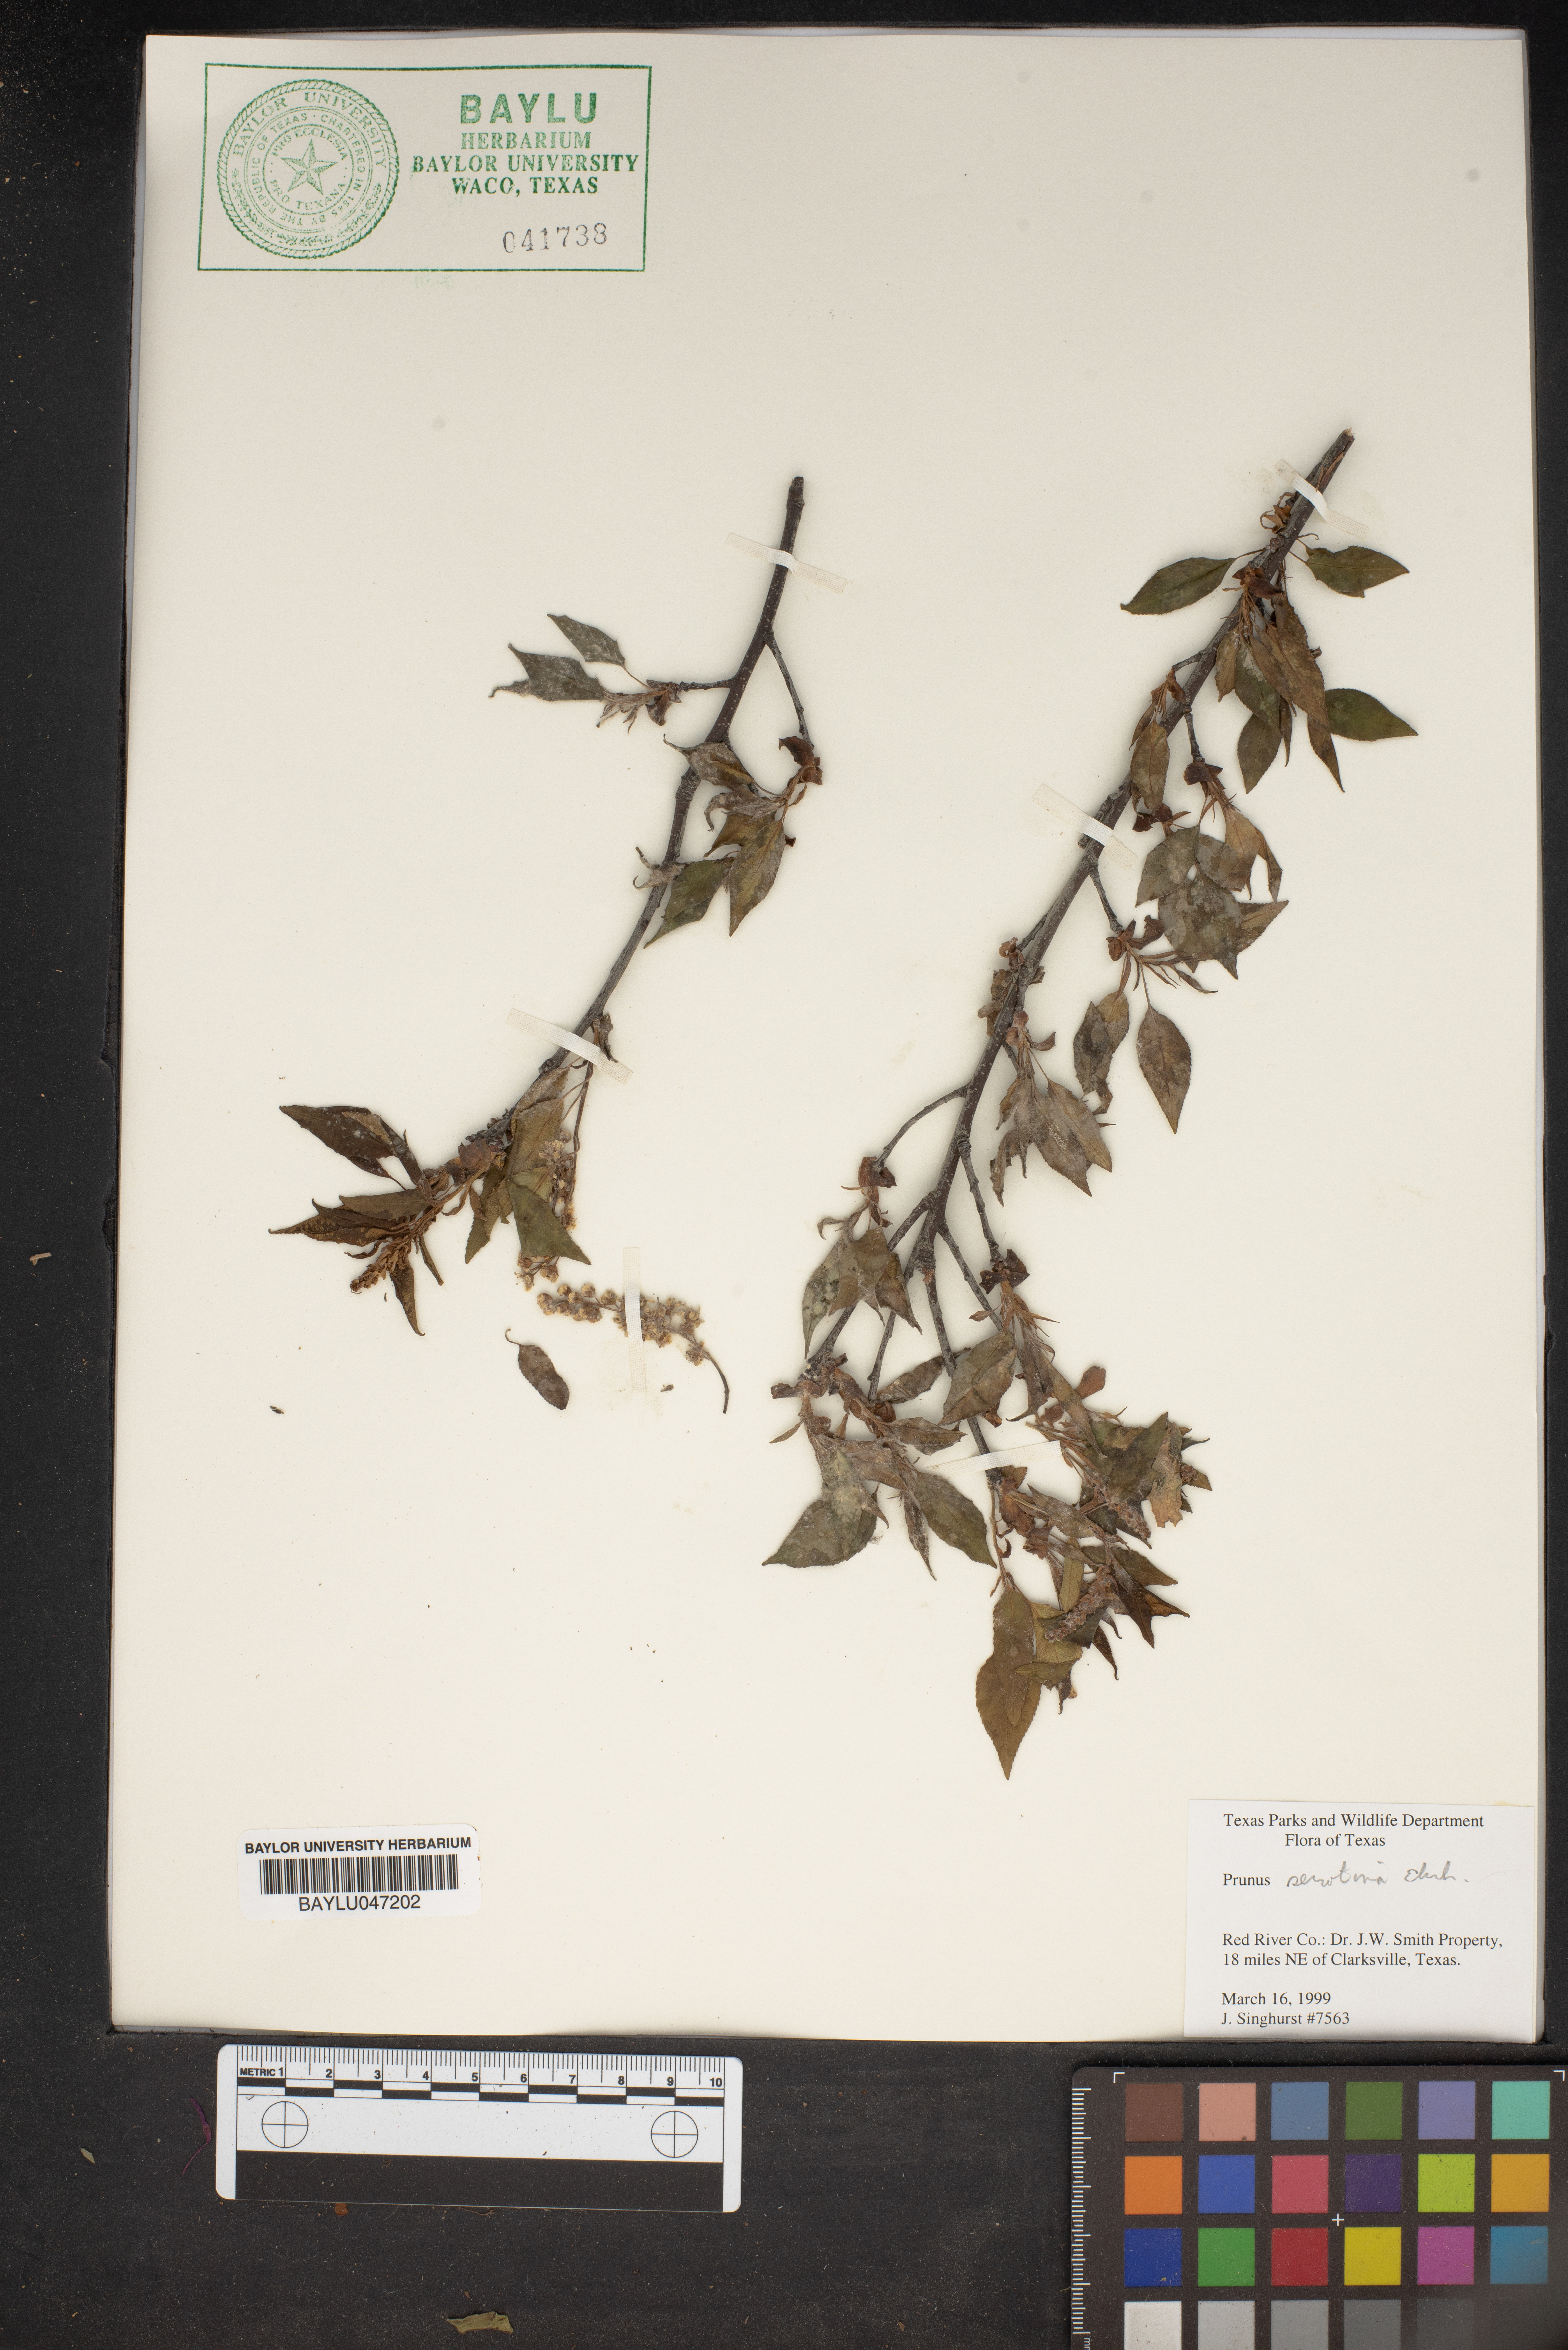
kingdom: Plantae
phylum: Tracheophyta
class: Magnoliopsida
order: Rosales
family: Rosaceae
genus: Prunus
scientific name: Prunus serotina
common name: Black cherry
